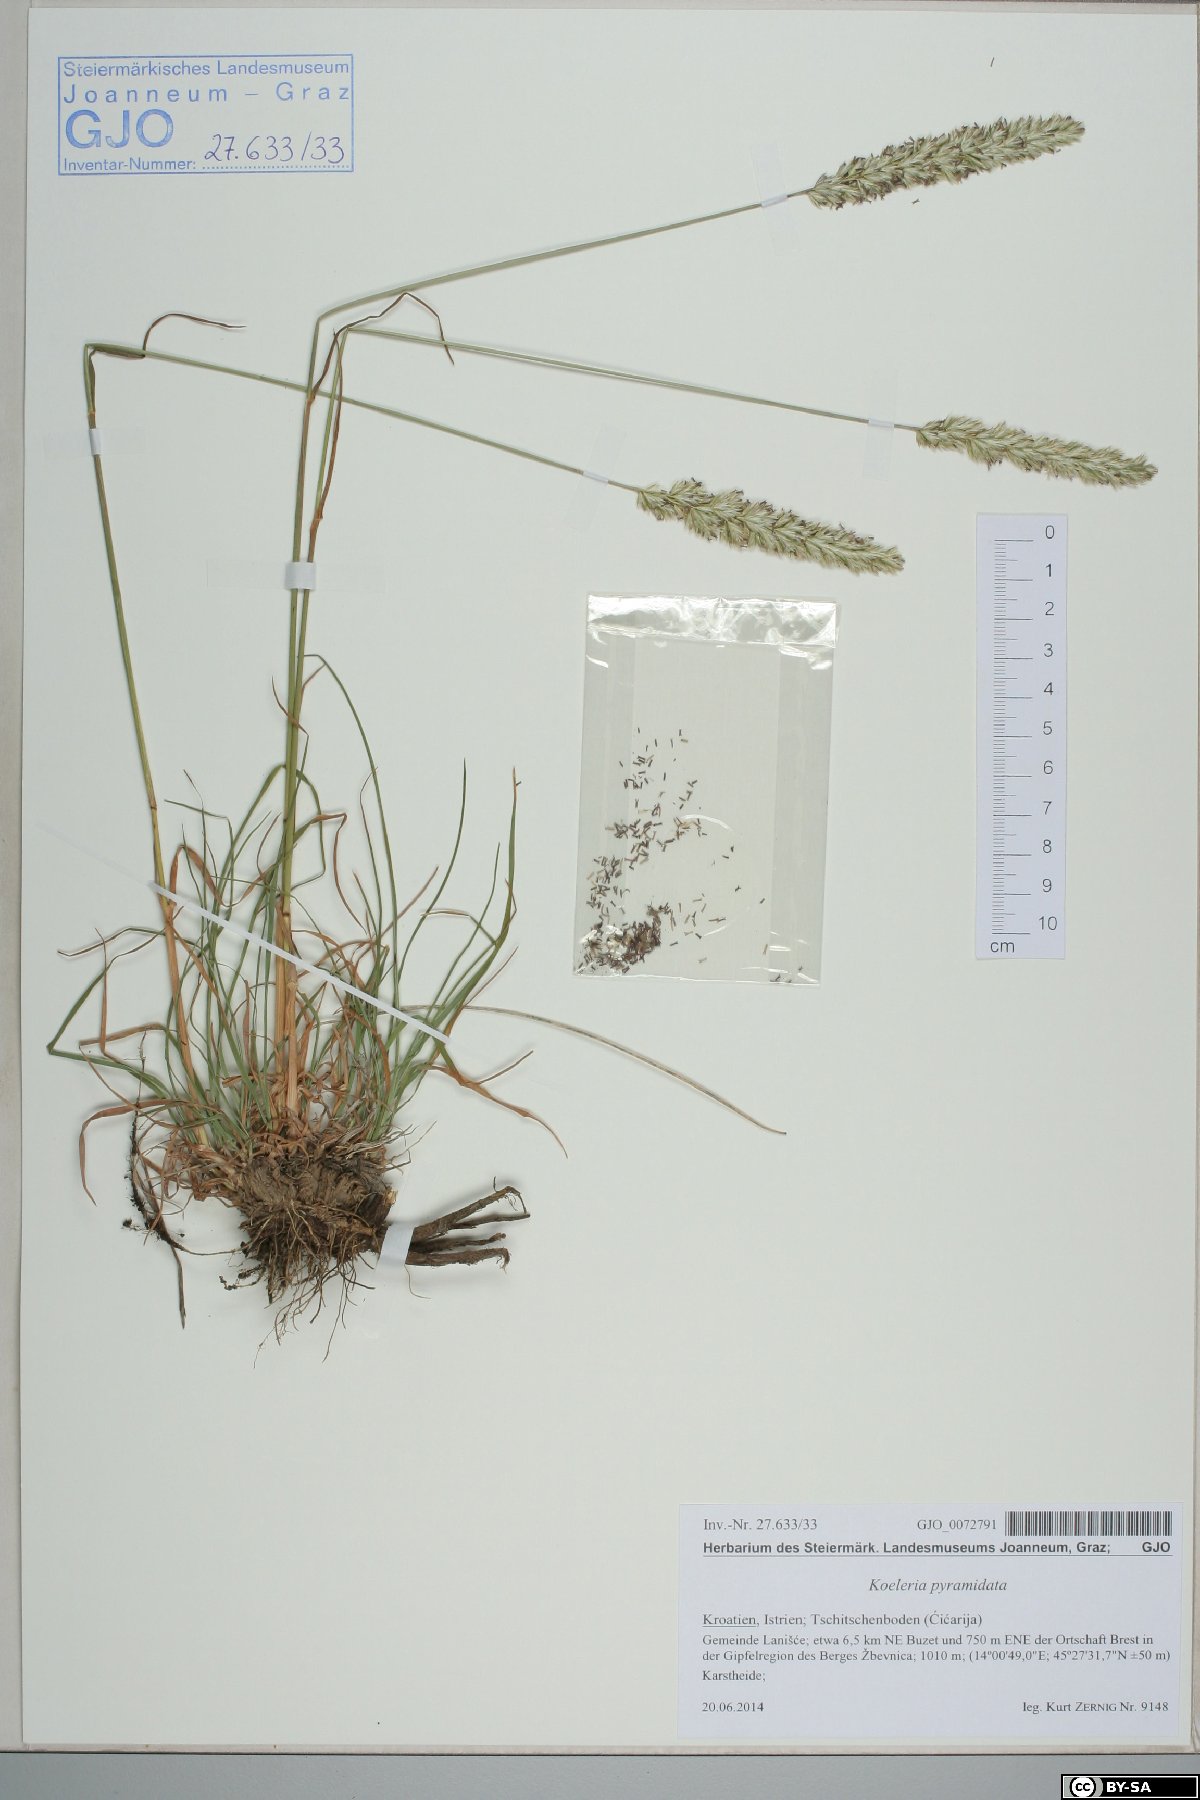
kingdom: Plantae
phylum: Tracheophyta
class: Liliopsida
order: Poales
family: Poaceae
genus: Koeleria
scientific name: Koeleria pyramidata
